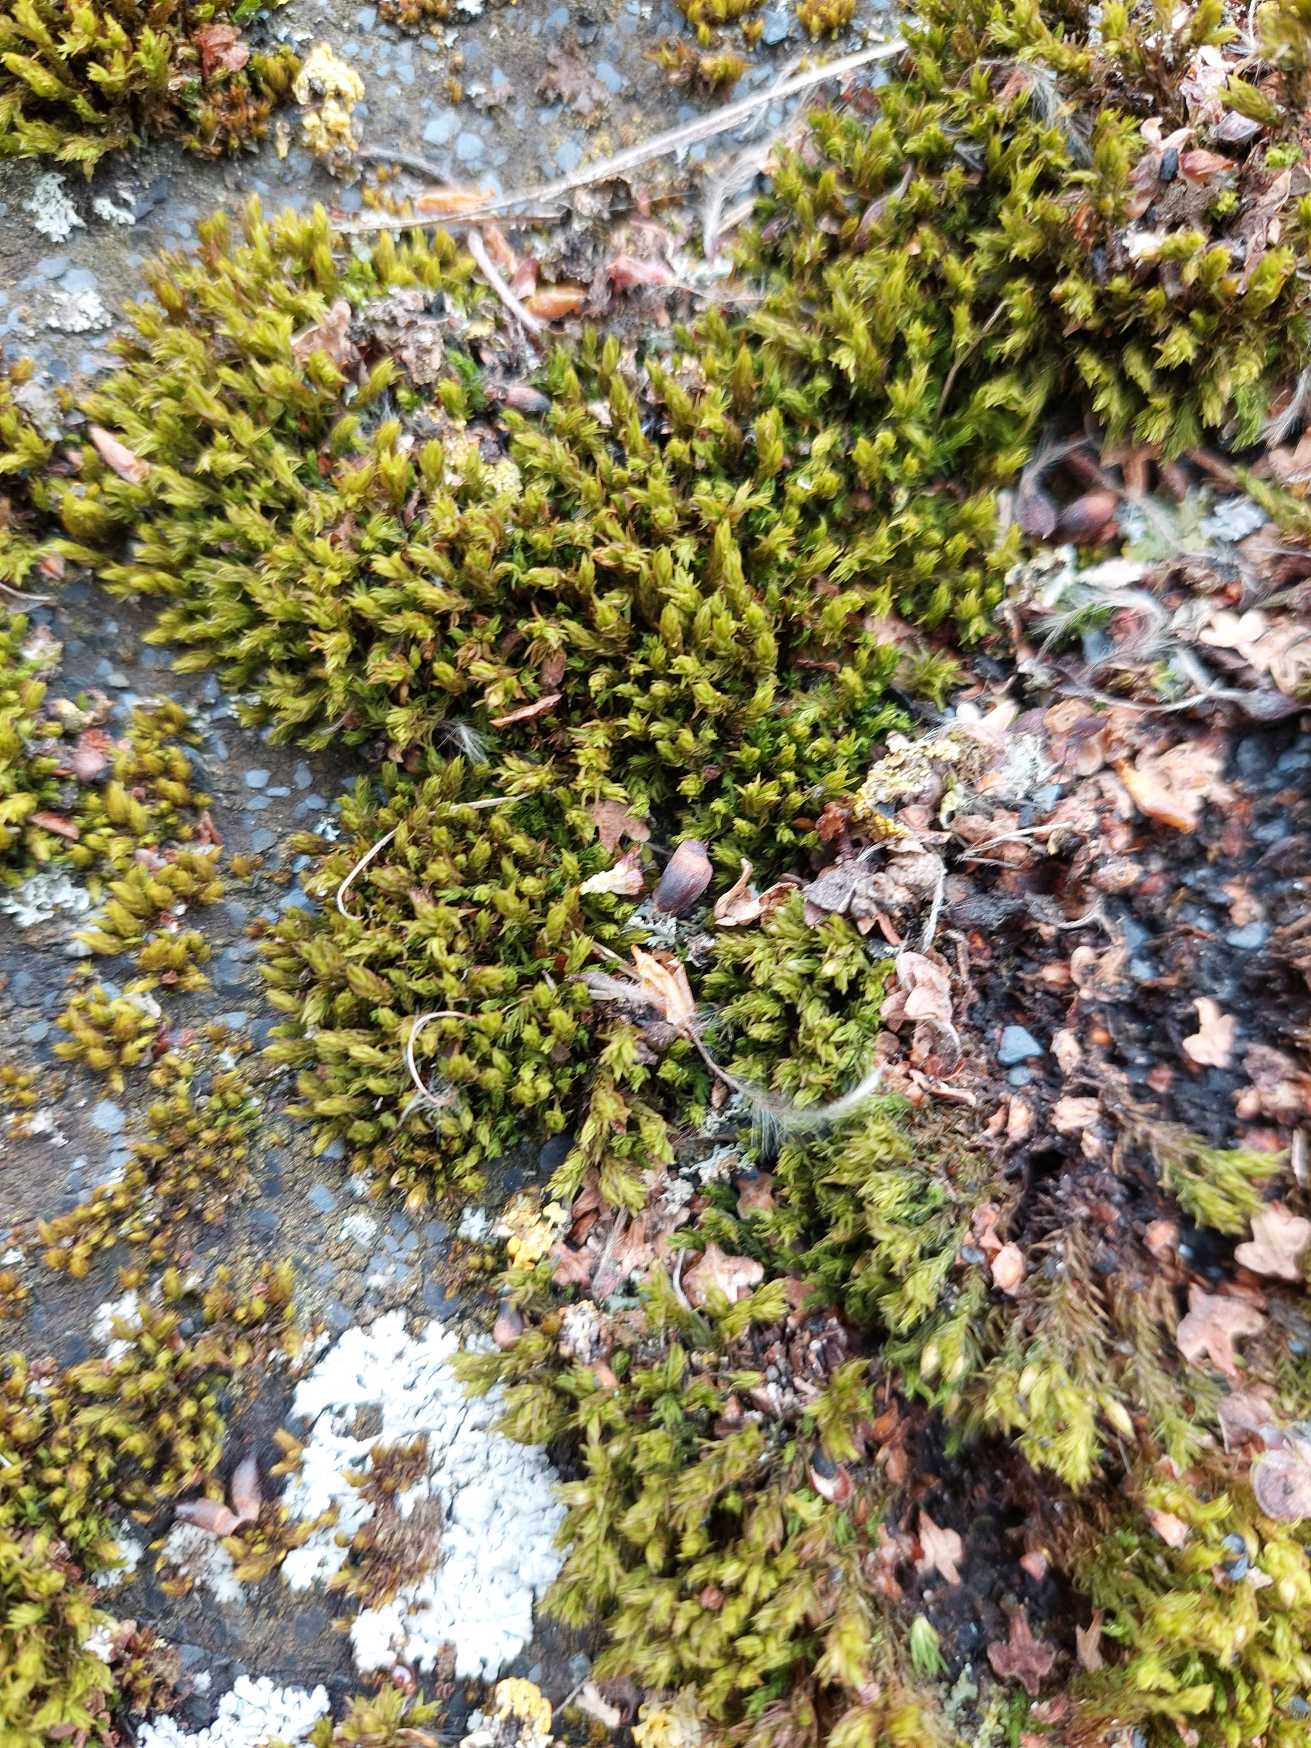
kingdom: Plantae
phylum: Bryophyta
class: Bryopsida
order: Orthotrichales
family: Orthotrichaceae
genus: Lewinskya
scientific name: Lewinskya affinis
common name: Almindelig furehætte
